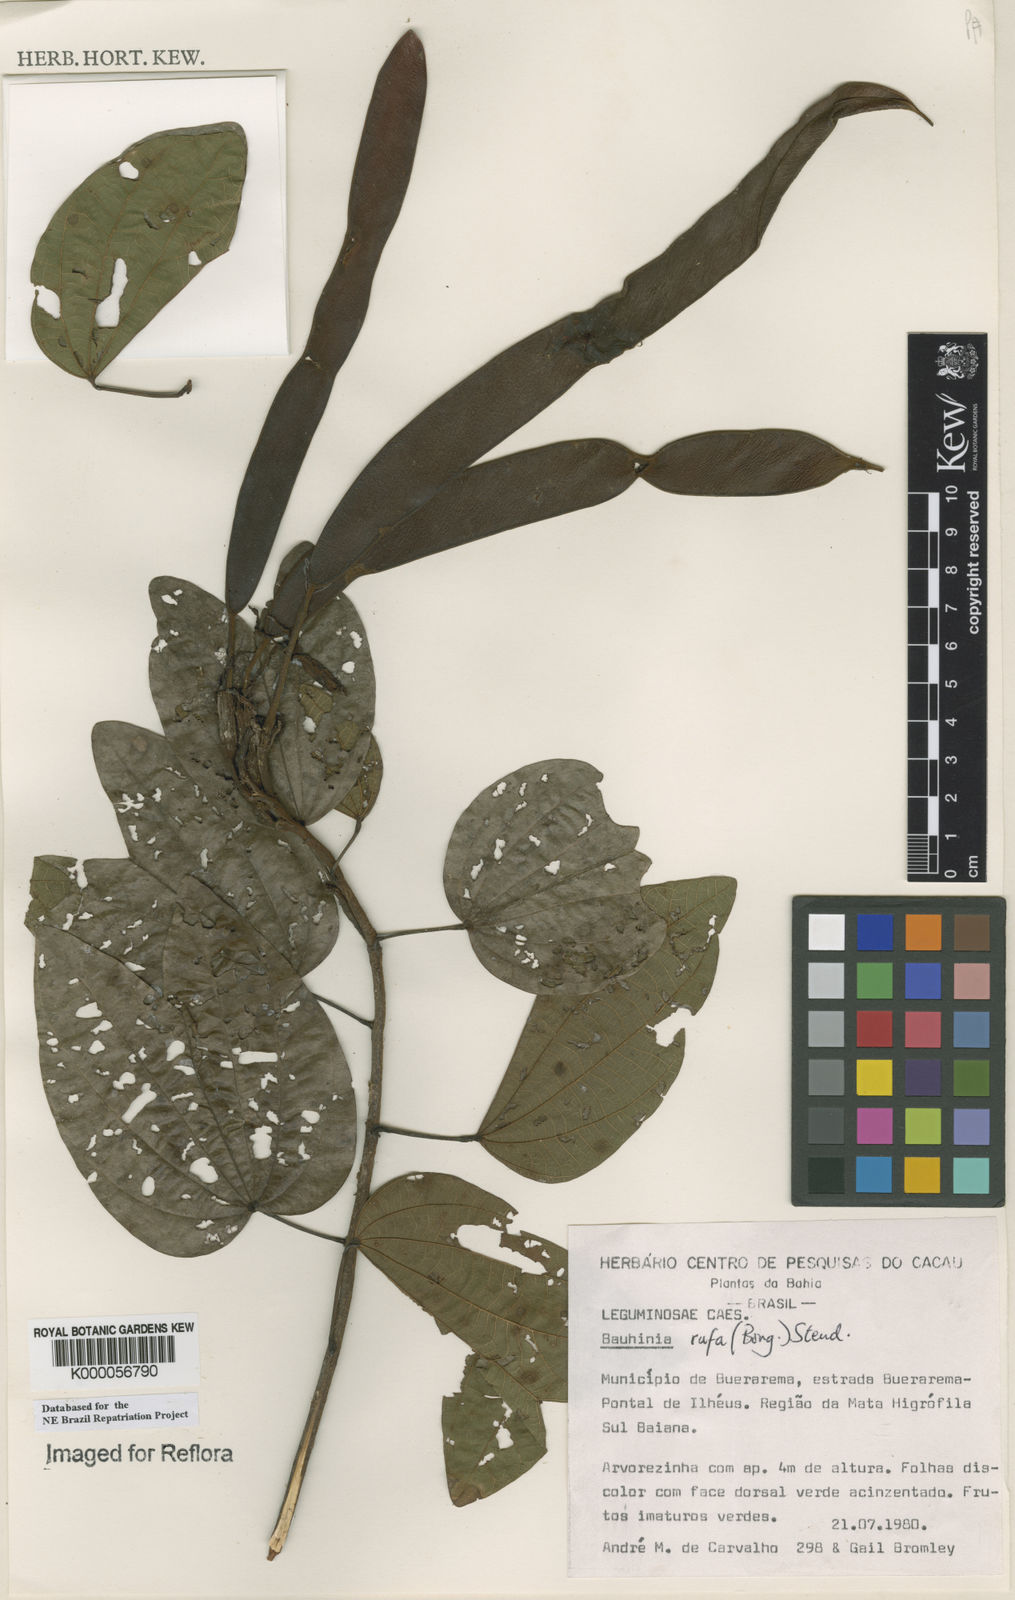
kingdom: Plantae
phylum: Tracheophyta
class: Magnoliopsida
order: Fabales
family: Fabaceae
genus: Bauhinia
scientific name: Bauhinia rufa
